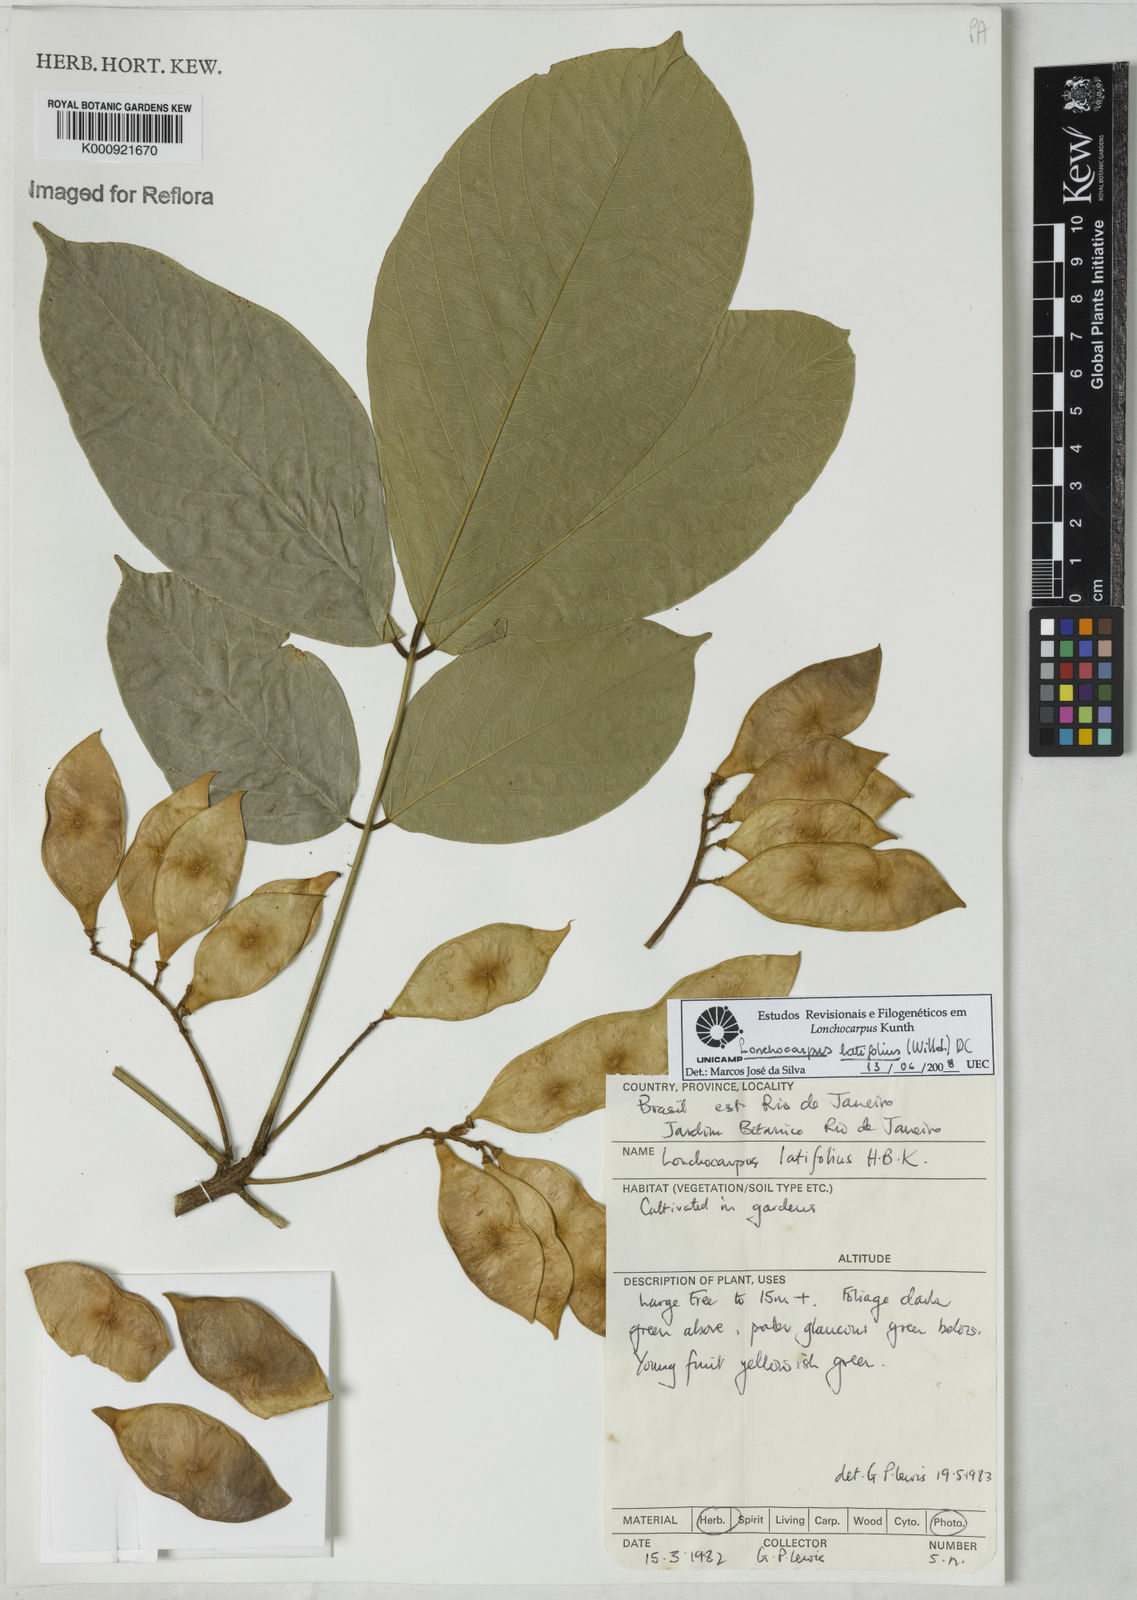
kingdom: Plantae
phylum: Tracheophyta
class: Magnoliopsida
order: Fabales
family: Fabaceae
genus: Lonchocarpus
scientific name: Lonchocarpus
